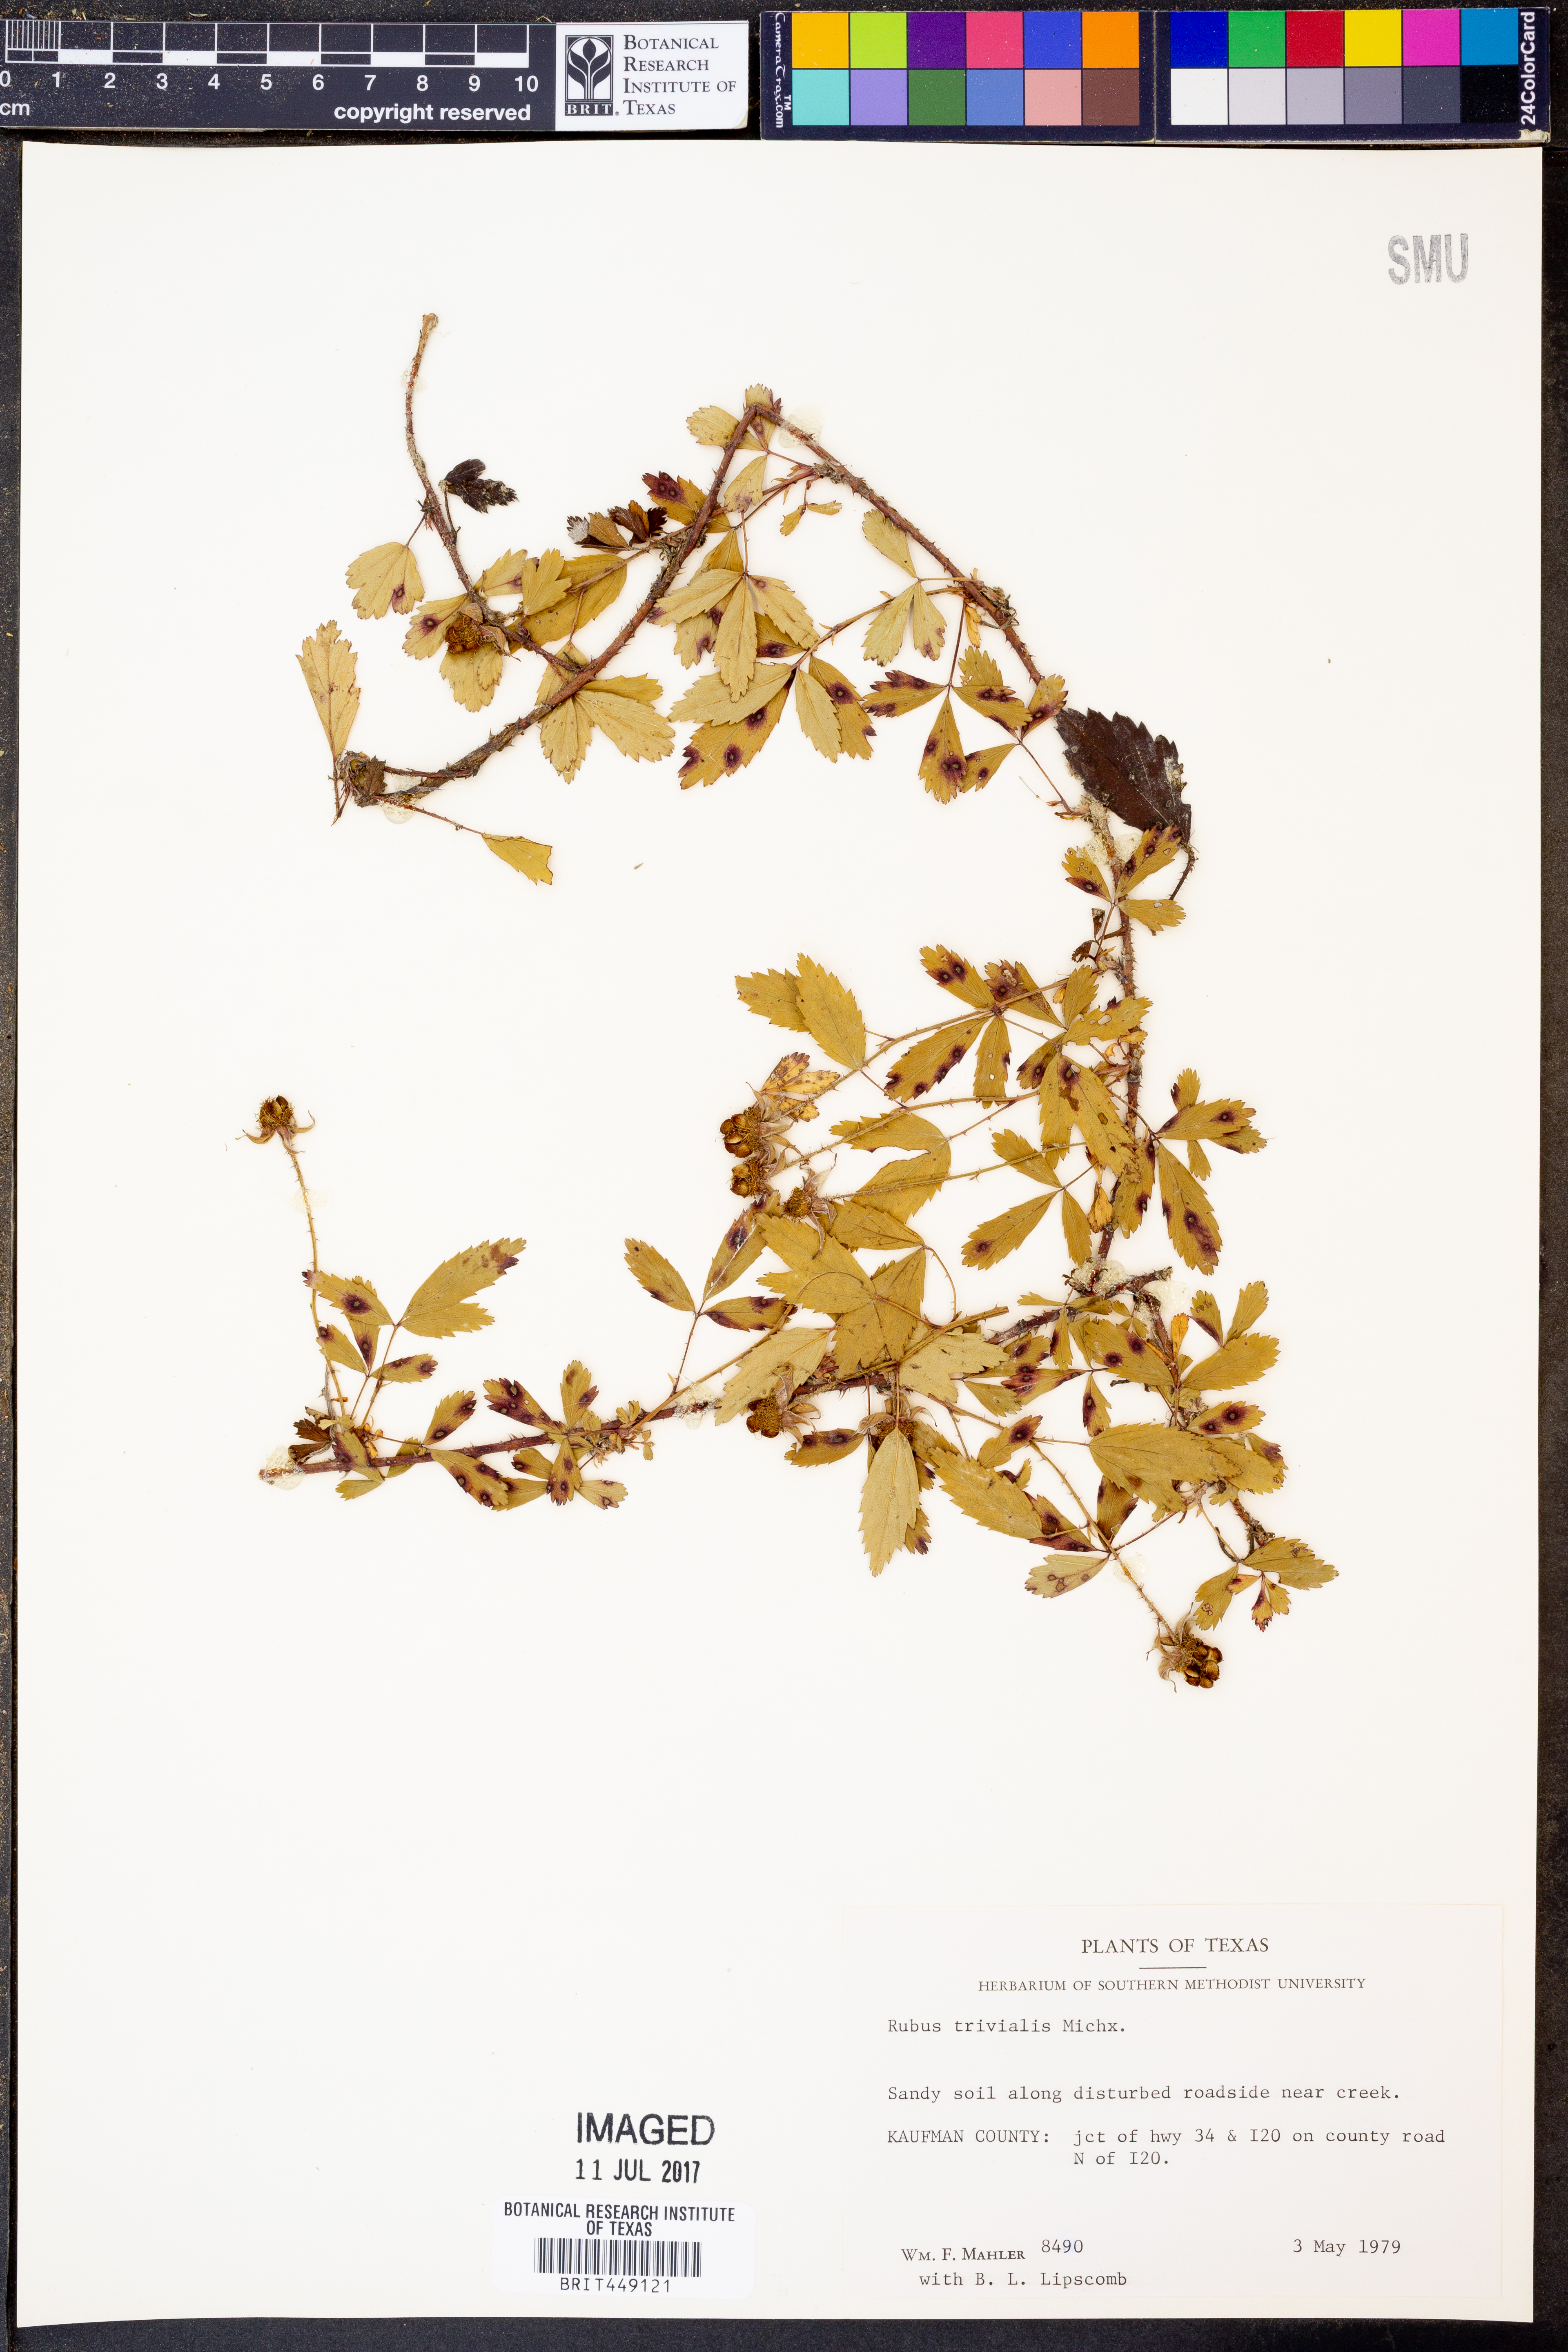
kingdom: Plantae
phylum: Tracheophyta
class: Magnoliopsida
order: Rosales
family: Rosaceae
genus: Rubus
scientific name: Rubus trivialis
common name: Southern dewberry
